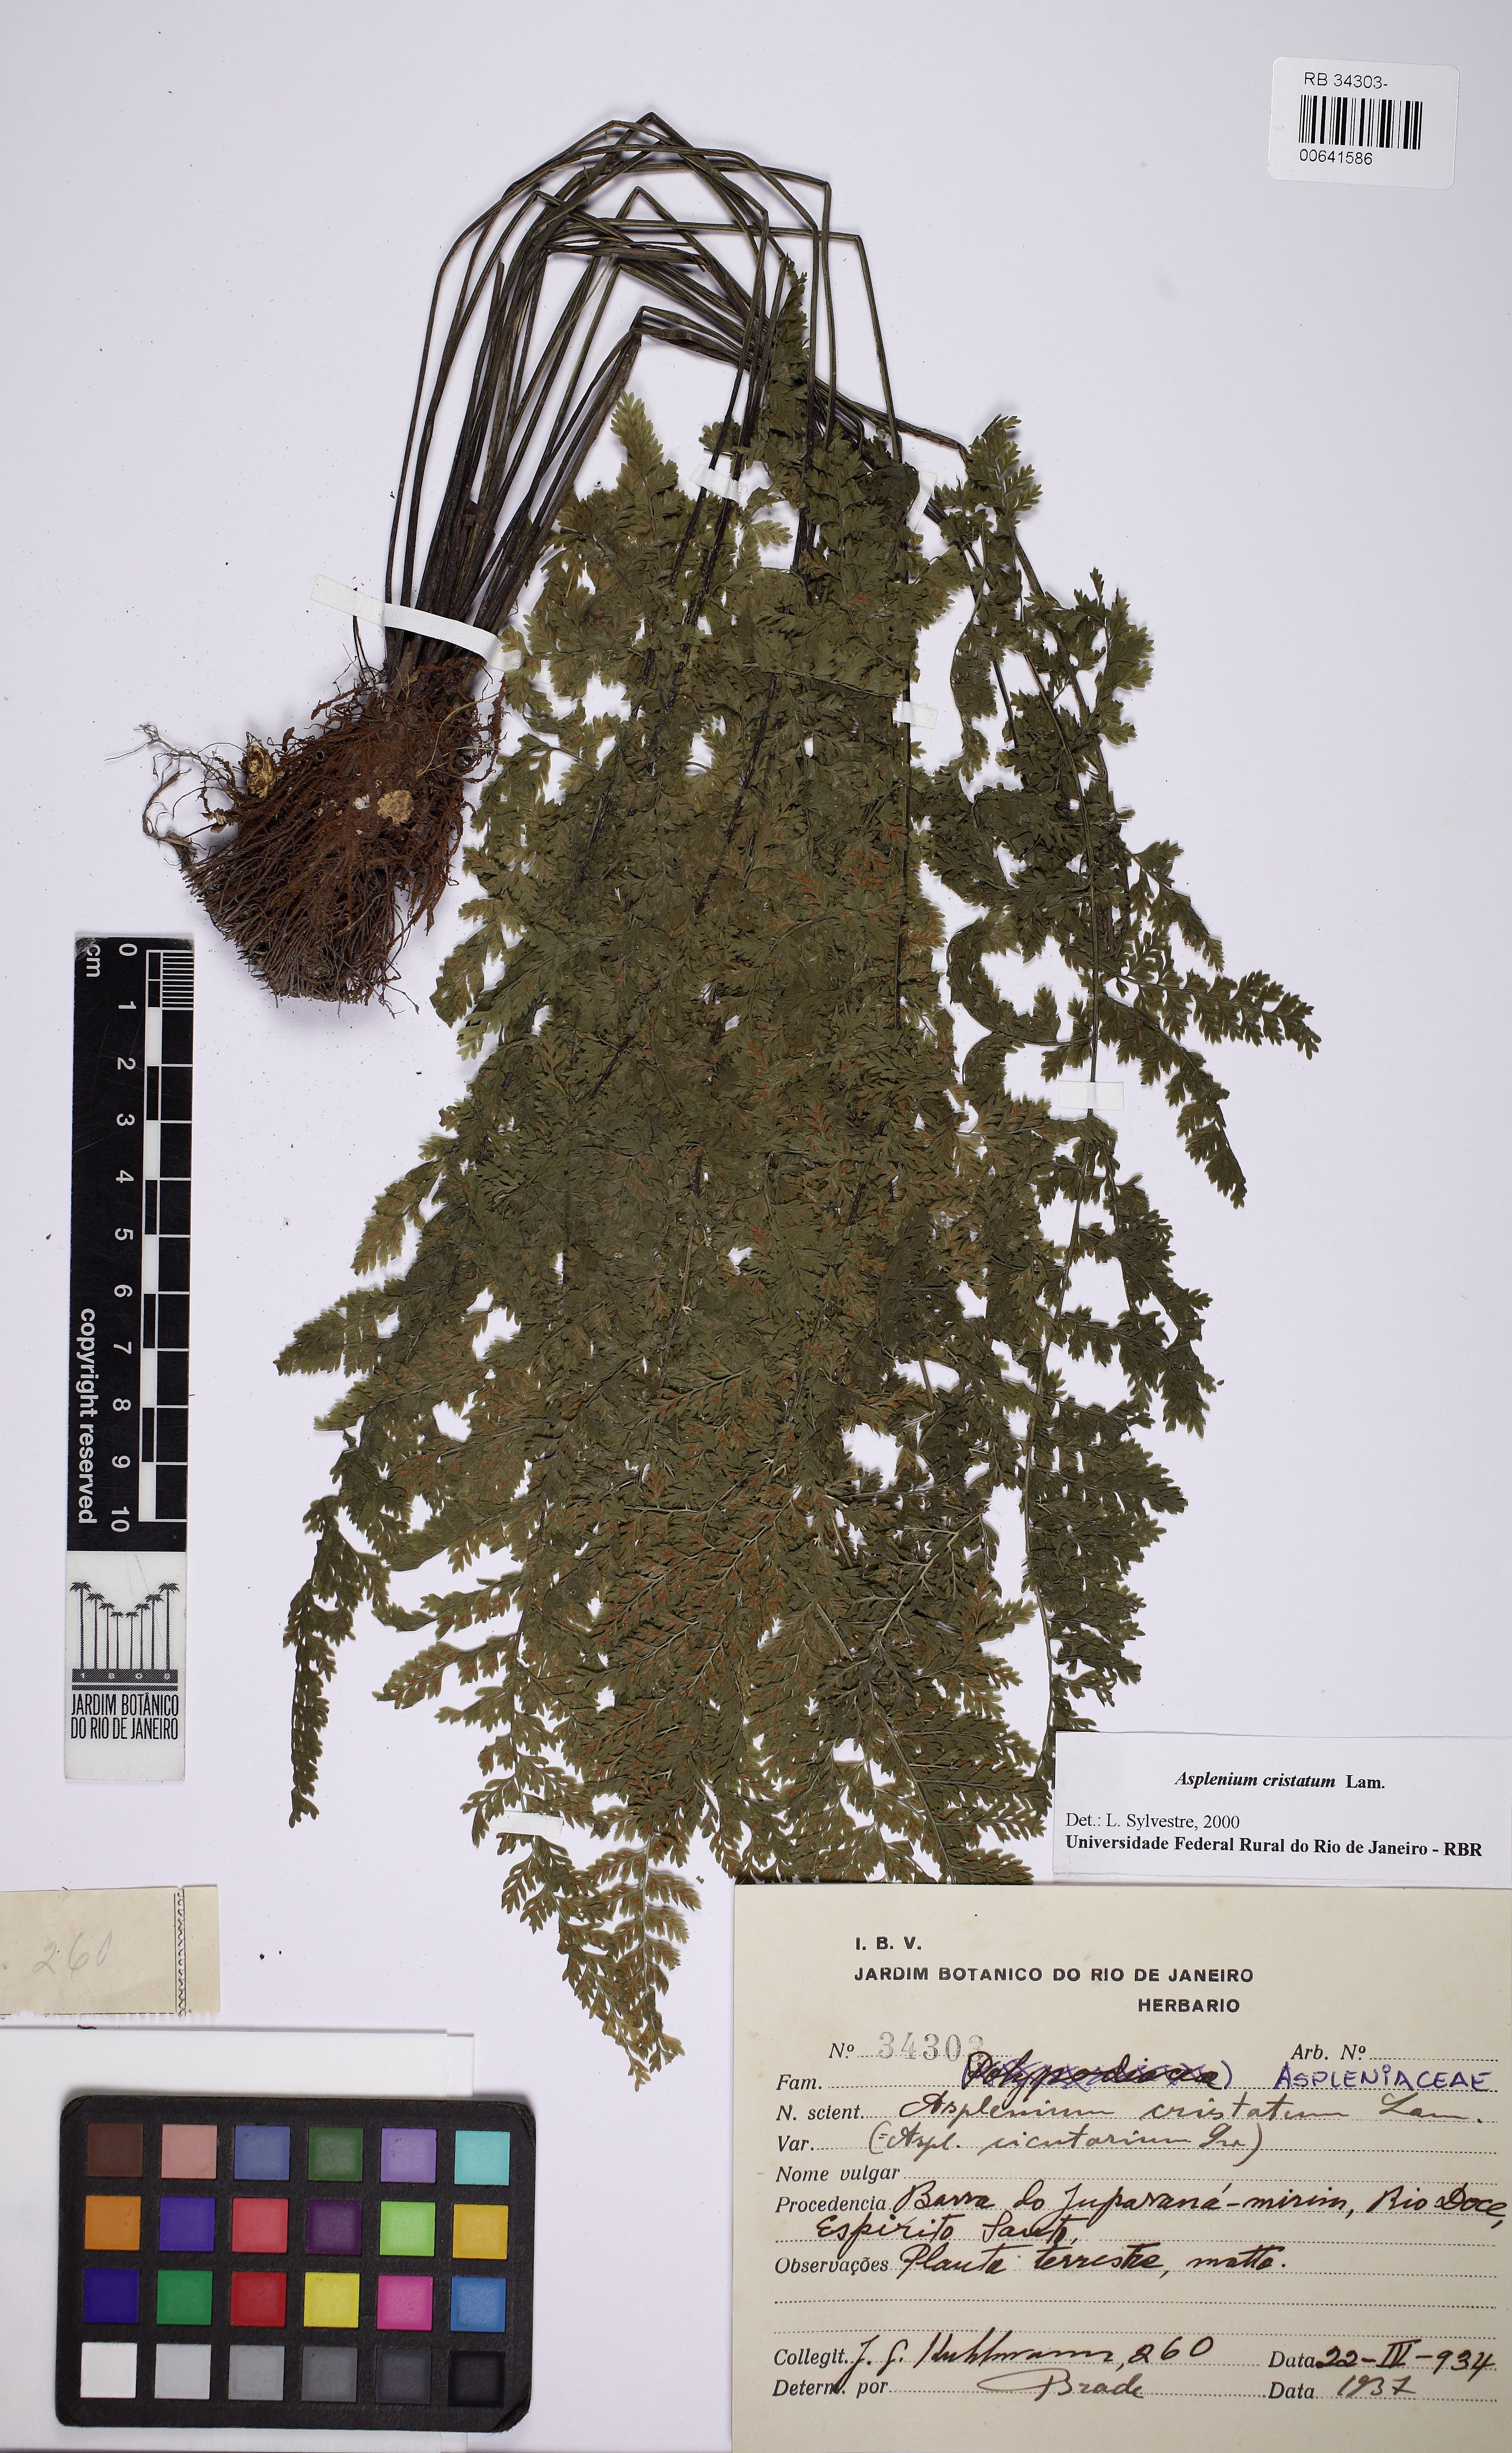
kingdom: Plantae
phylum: Tracheophyta
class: Polypodiopsida
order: Polypodiales
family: Aspleniaceae
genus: Asplenium
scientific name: Asplenium cristatum
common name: Parsley spleenwort
